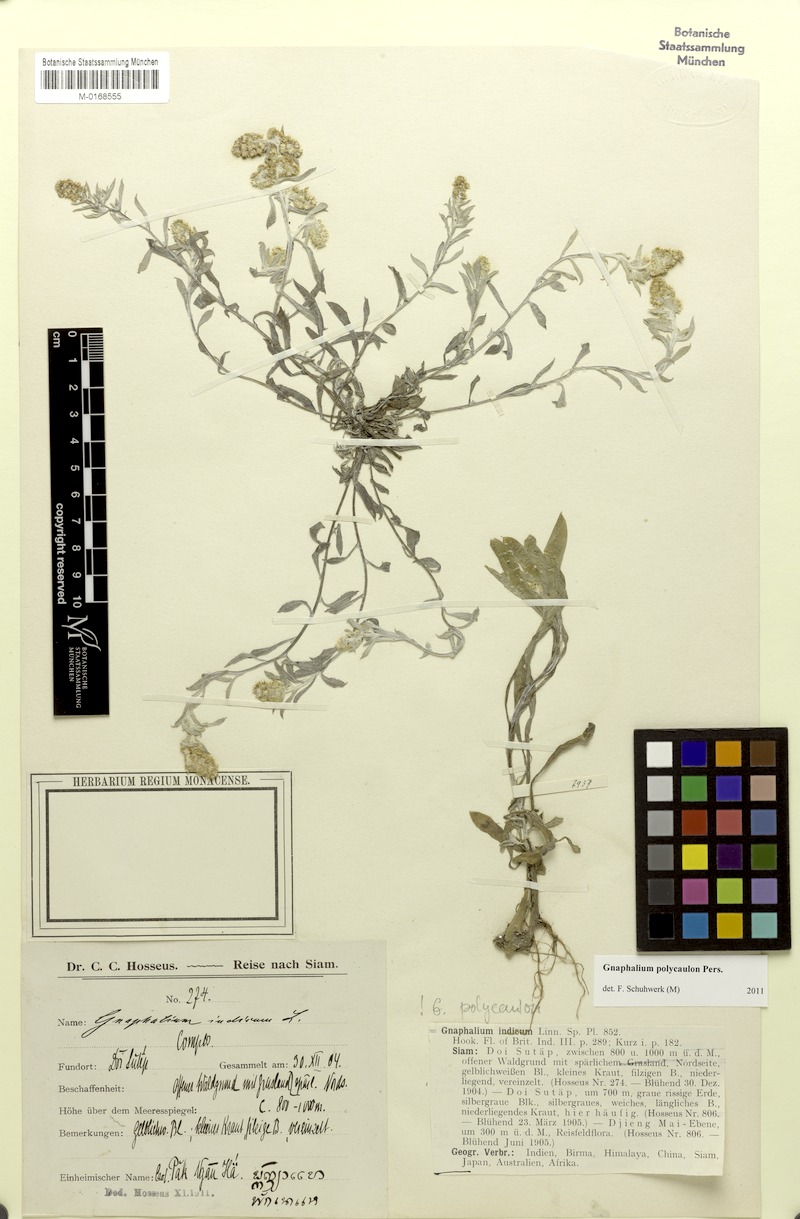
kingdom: Plantae
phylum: Tracheophyta
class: Magnoliopsida
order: Asterales
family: Asteraceae
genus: Gnaphalium
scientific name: Gnaphalium polycaulon
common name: Western cudweed
